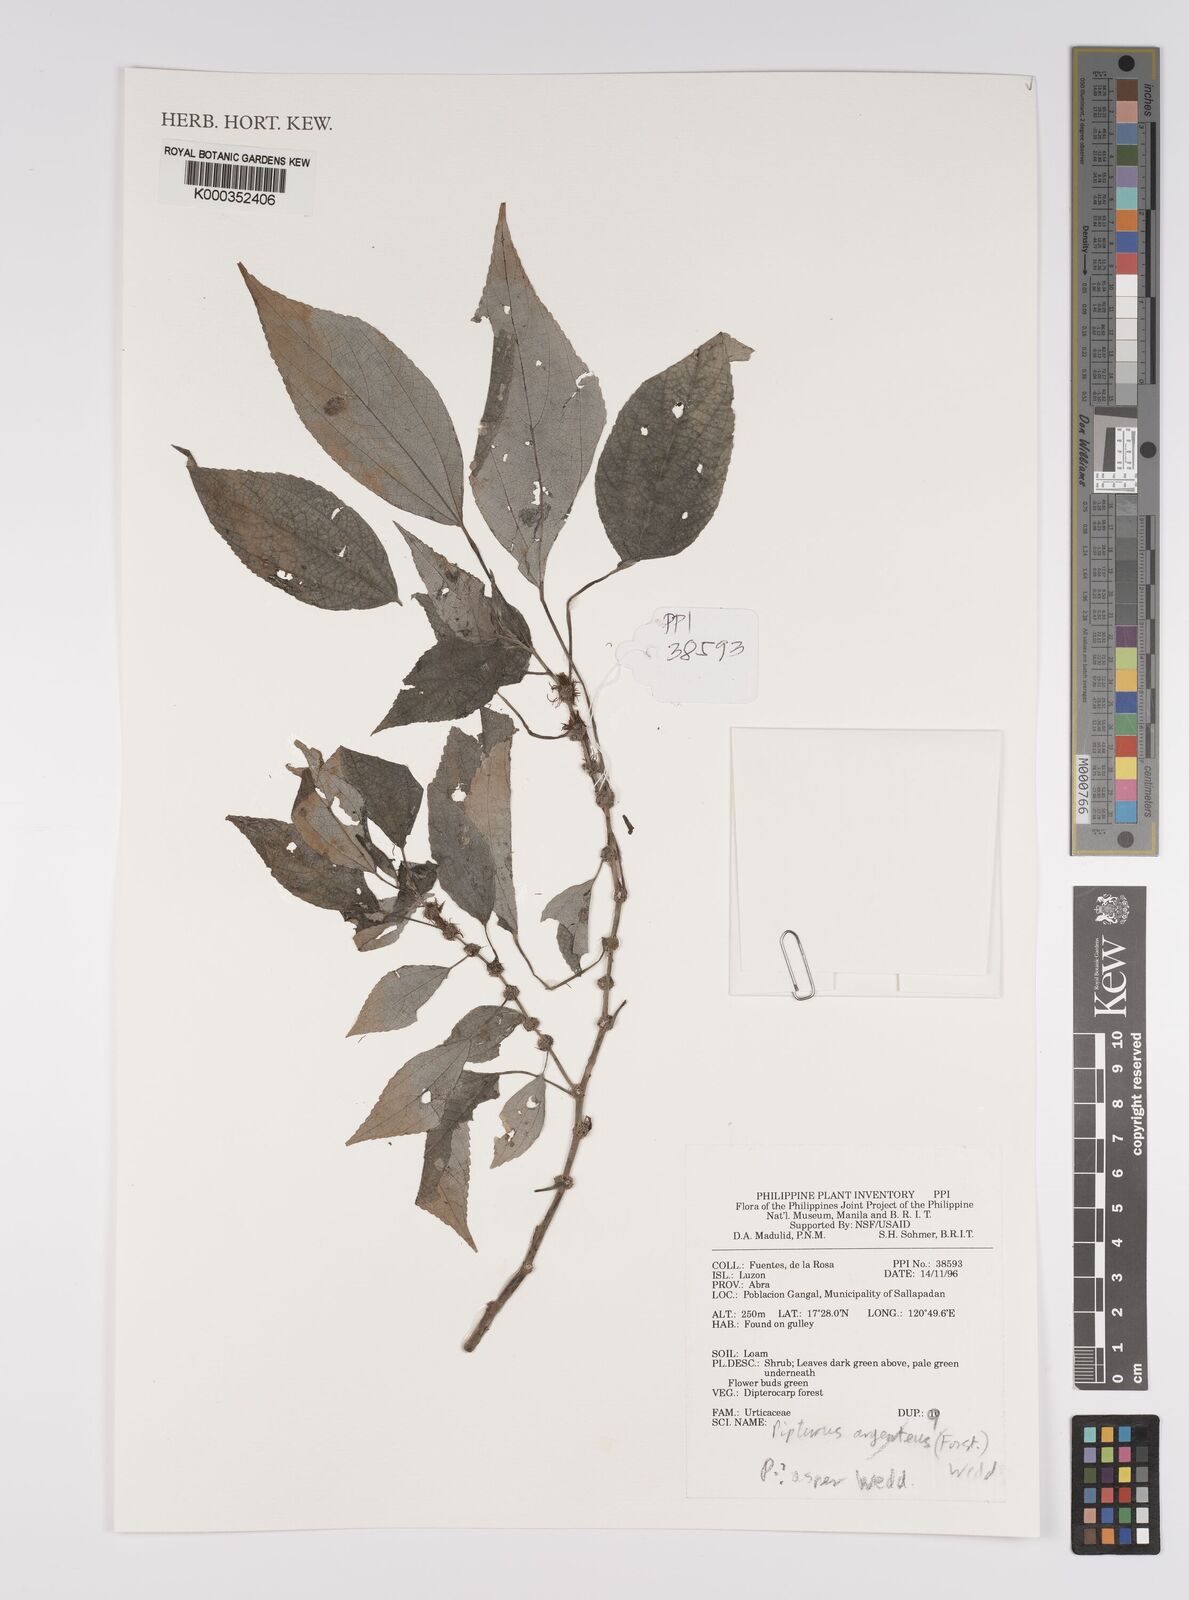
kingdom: Plantae
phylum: Tracheophyta
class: Magnoliopsida
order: Rosales
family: Urticaceae
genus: Pipturus
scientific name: Pipturus arborescens
